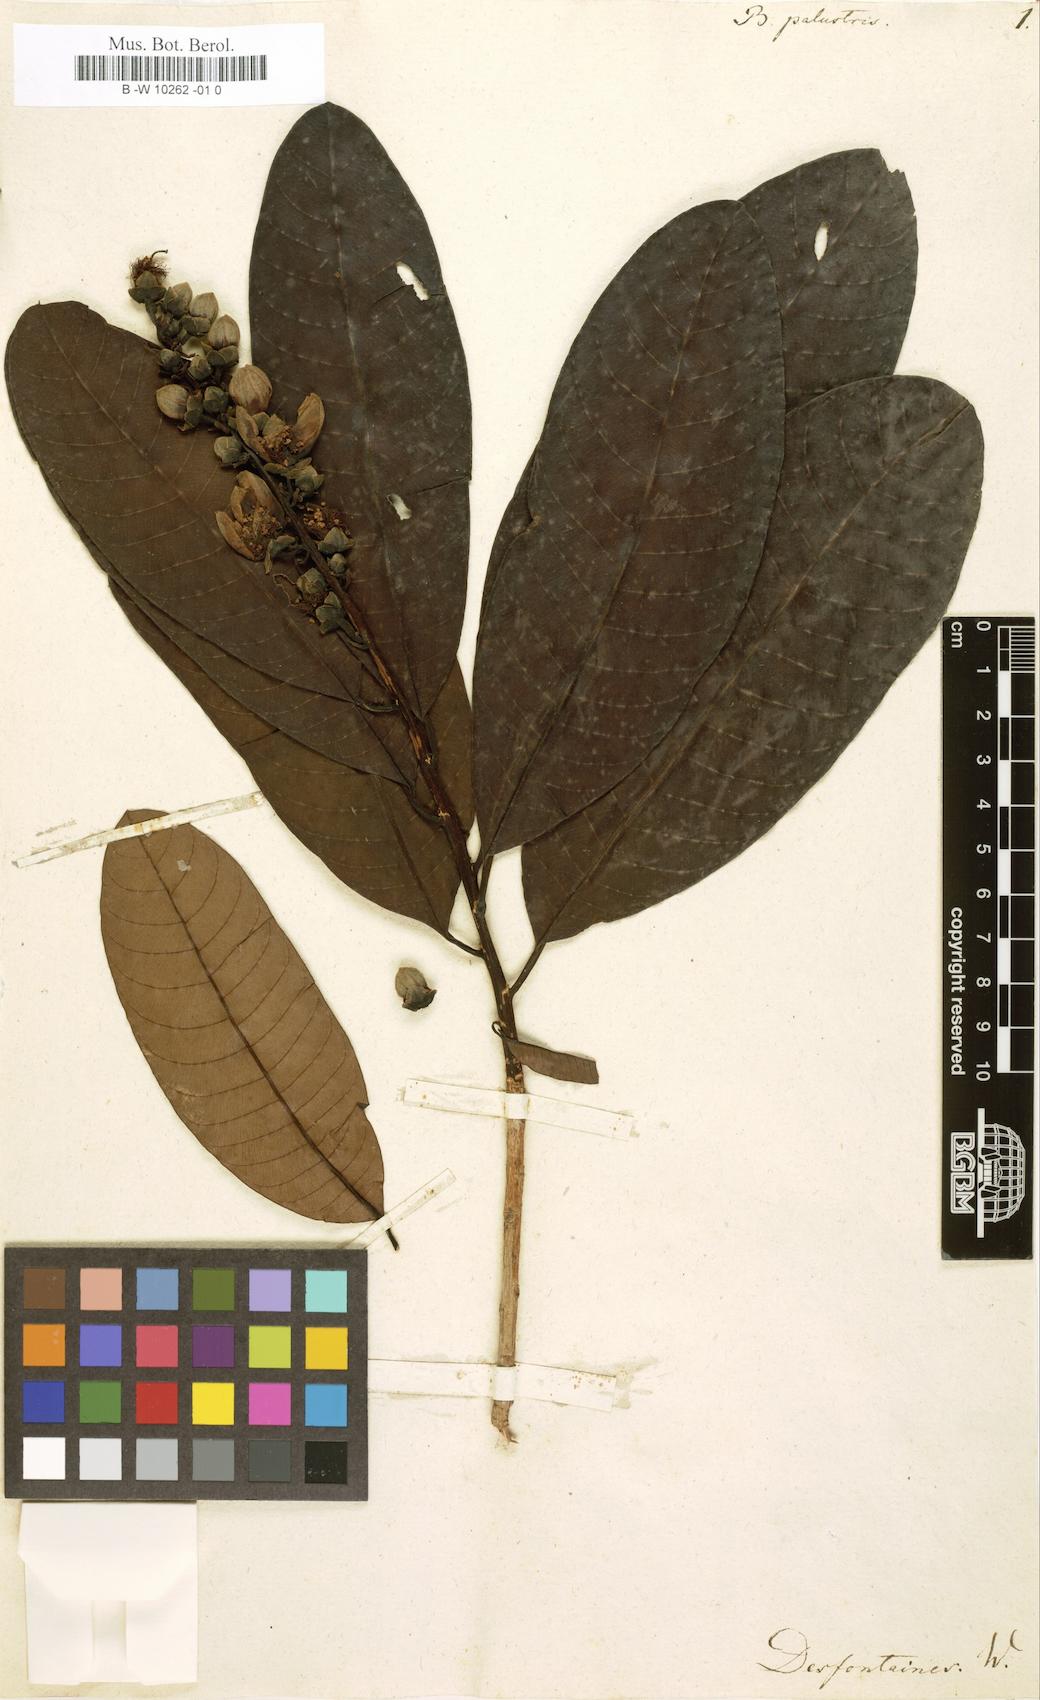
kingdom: Plantae
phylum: Tracheophyta
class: Magnoliopsida
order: Malpighiales
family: Calophyllaceae
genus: Mahurea
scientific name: Mahurea palustris
